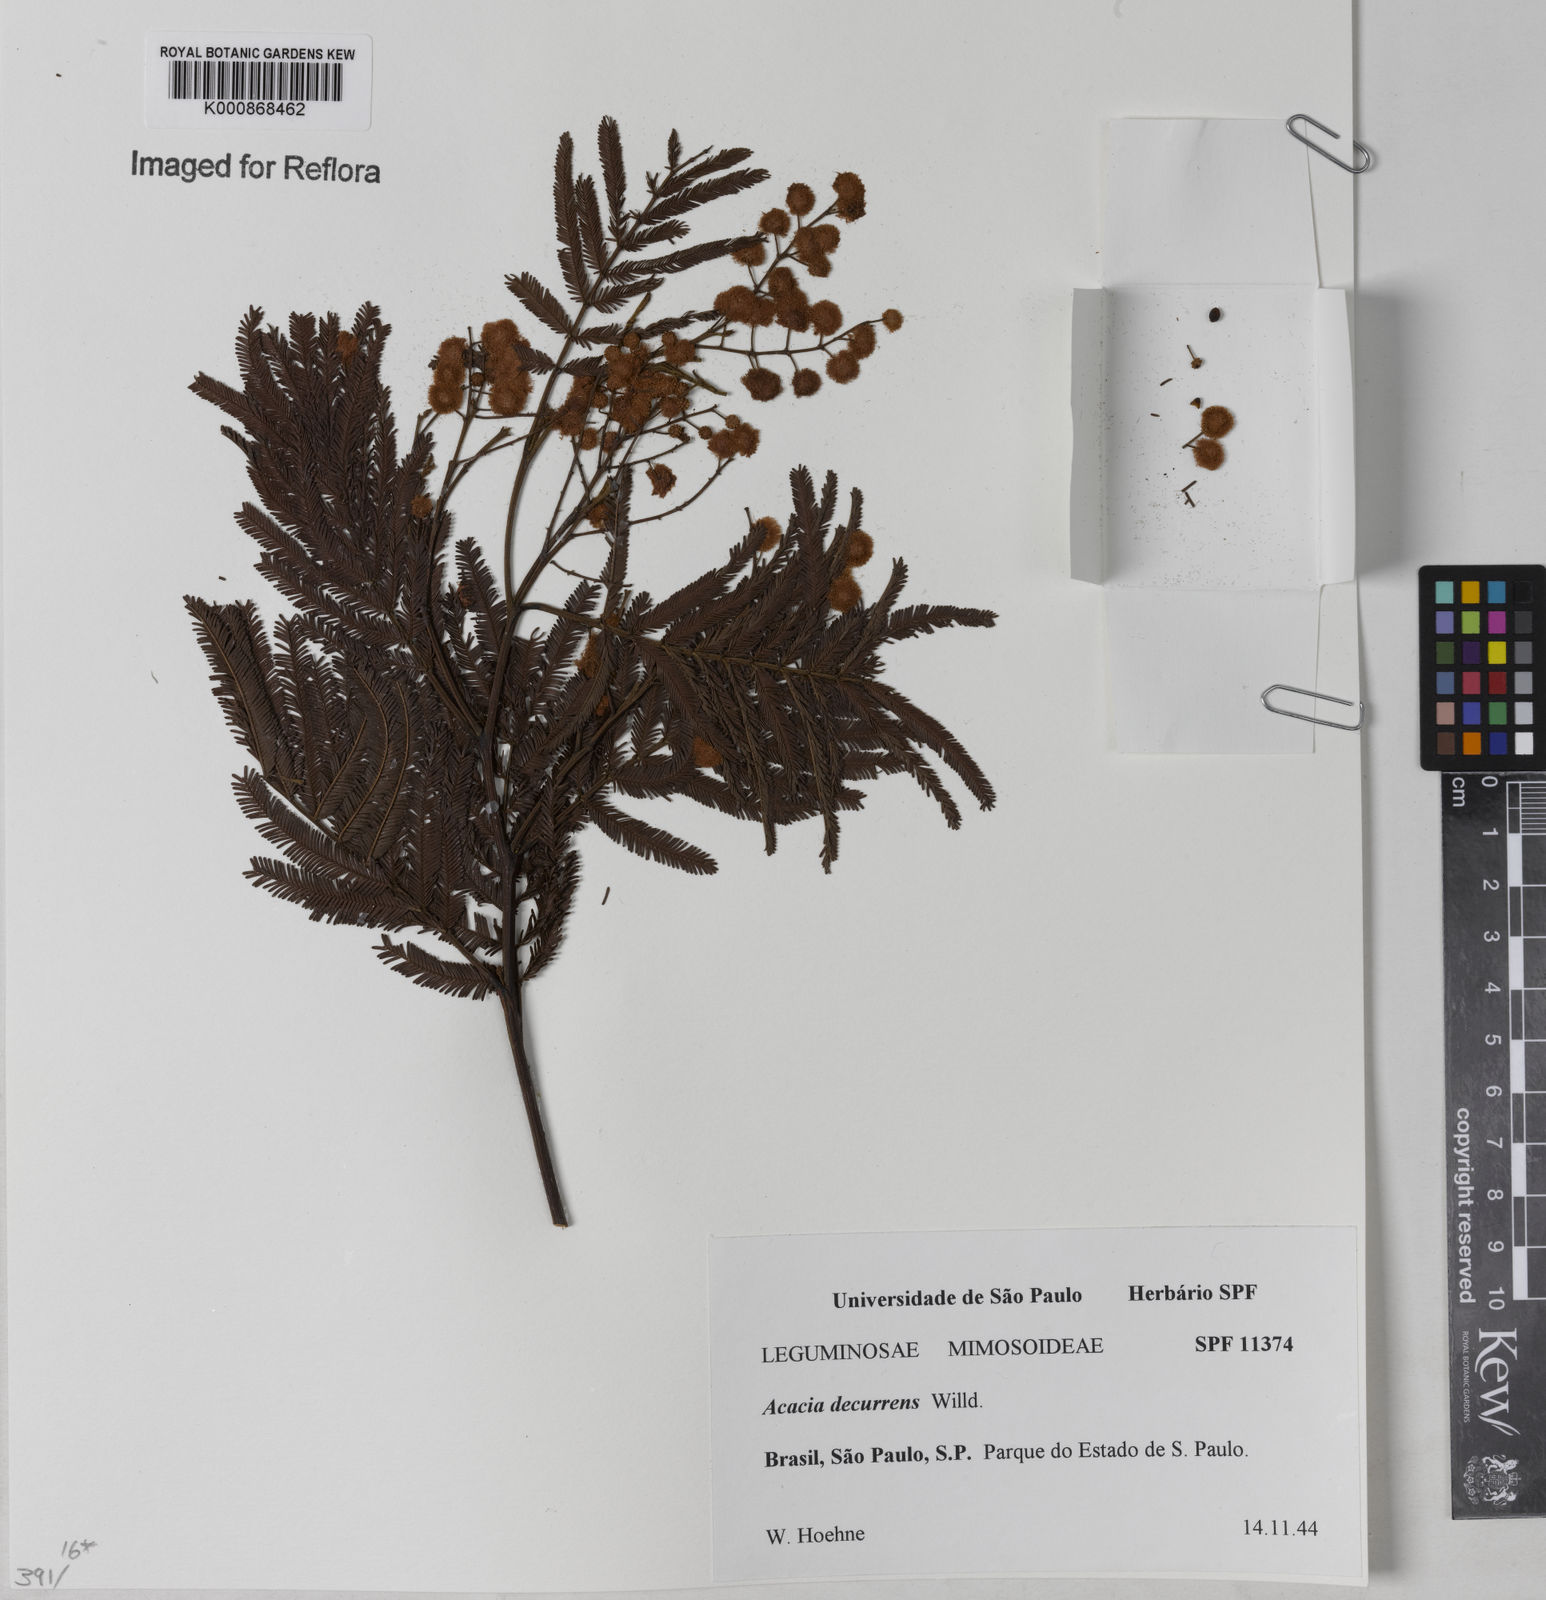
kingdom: Plantae
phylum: Tracheophyta
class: Magnoliopsida
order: Fabales
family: Fabaceae
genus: Acacia
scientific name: Acacia decurrens
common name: Green wattle
